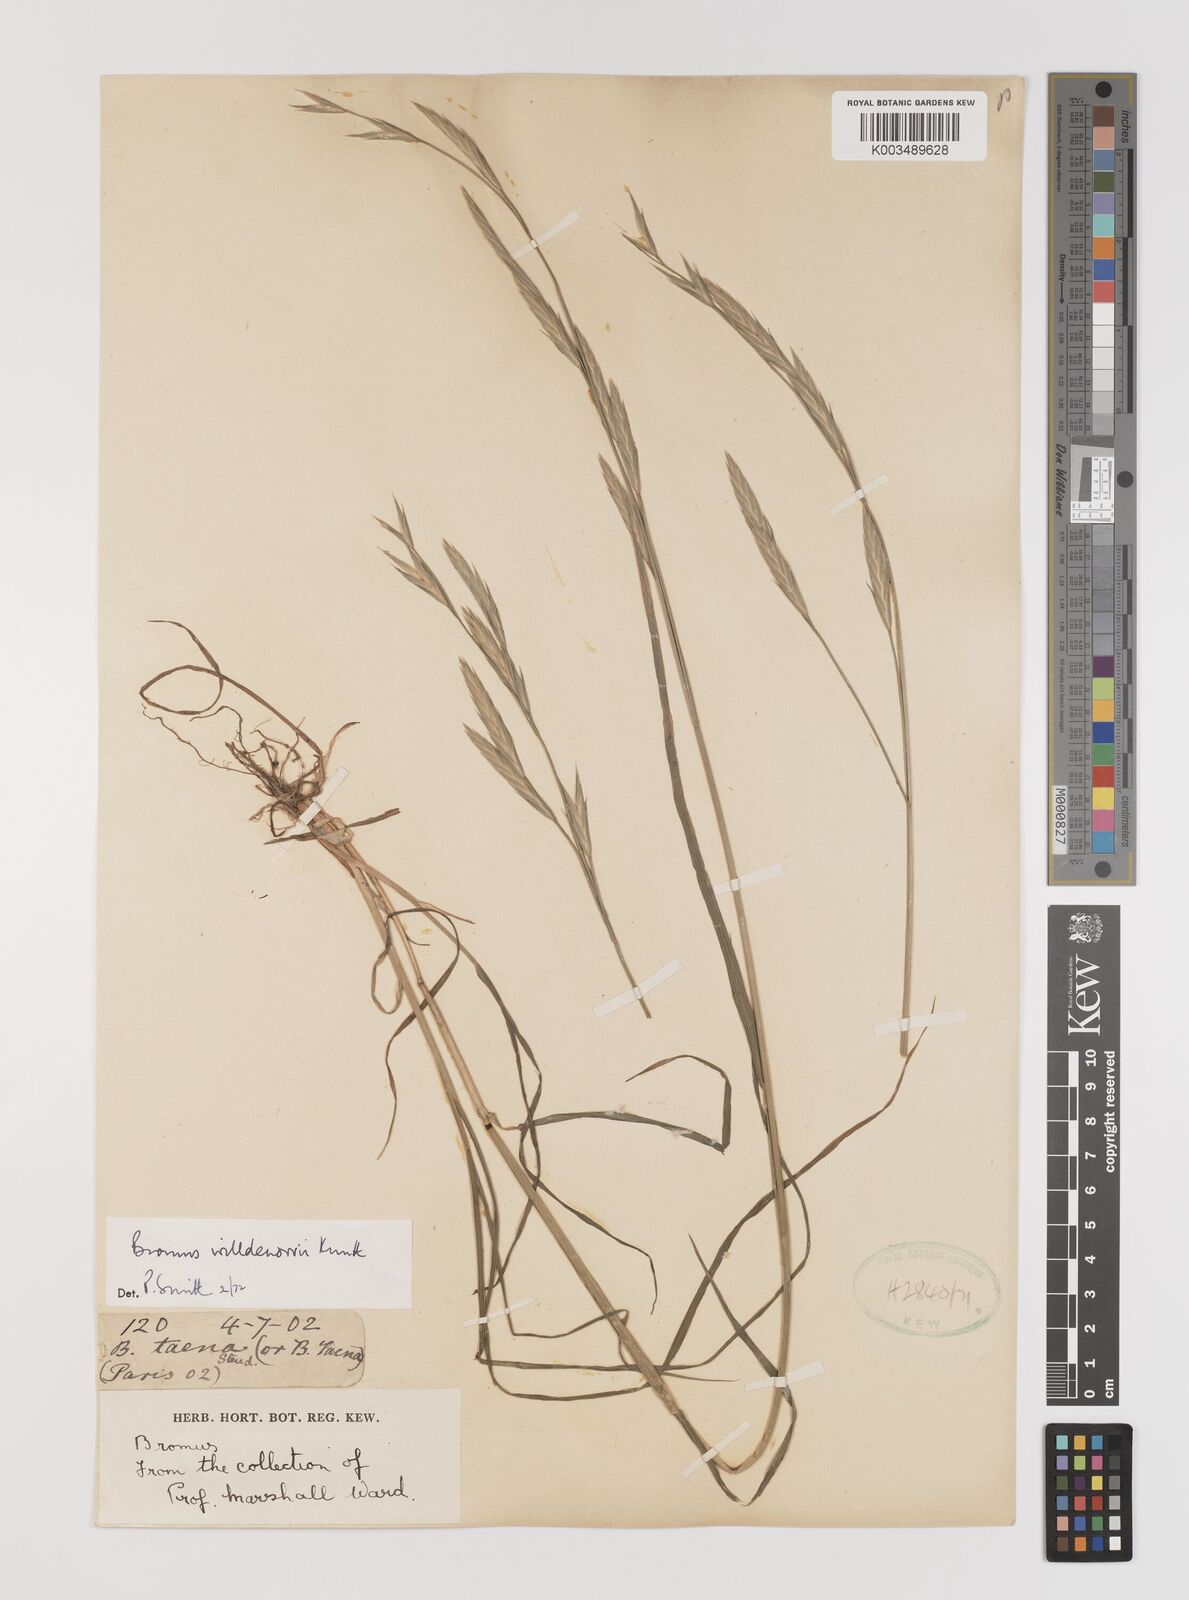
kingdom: Plantae
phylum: Tracheophyta
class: Liliopsida
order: Poales
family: Poaceae
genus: Bromus
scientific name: Bromus catharticus
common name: Rescuegrass
